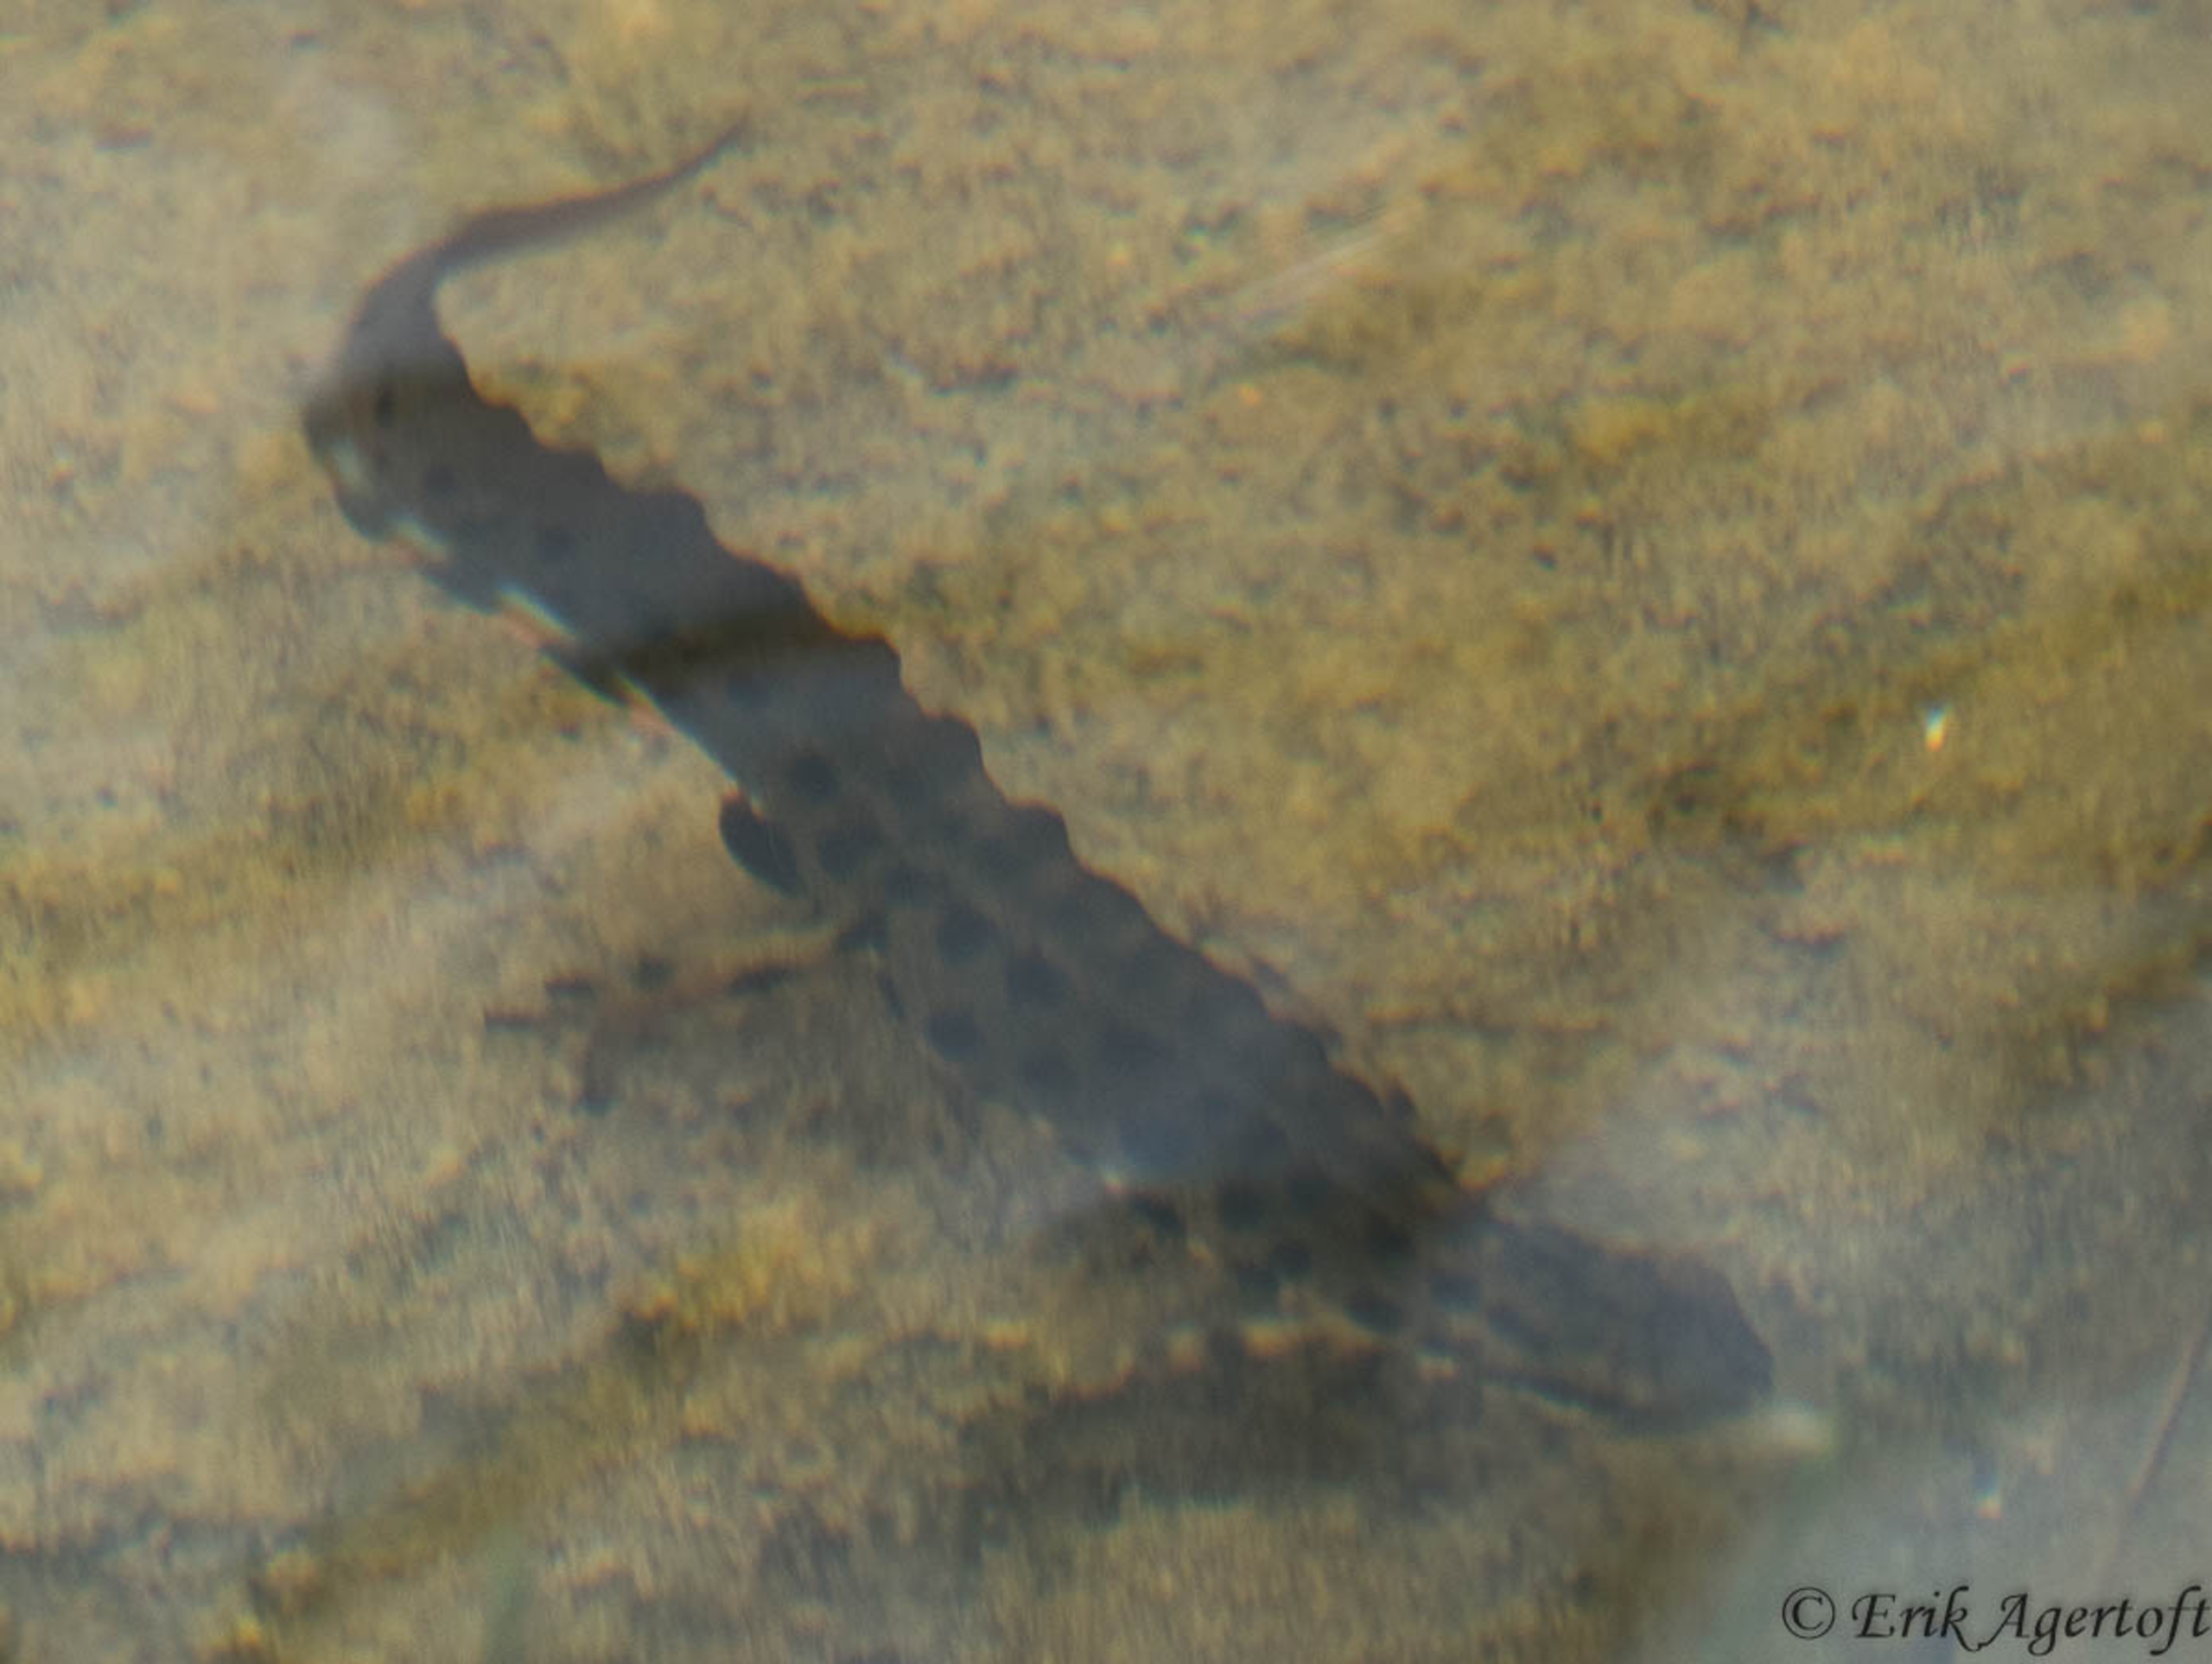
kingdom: Animalia
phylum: Chordata
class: Amphibia
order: Caudata
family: Salamandridae
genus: Lissotriton
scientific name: Lissotriton vulgaris
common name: Lille vandsalamander
